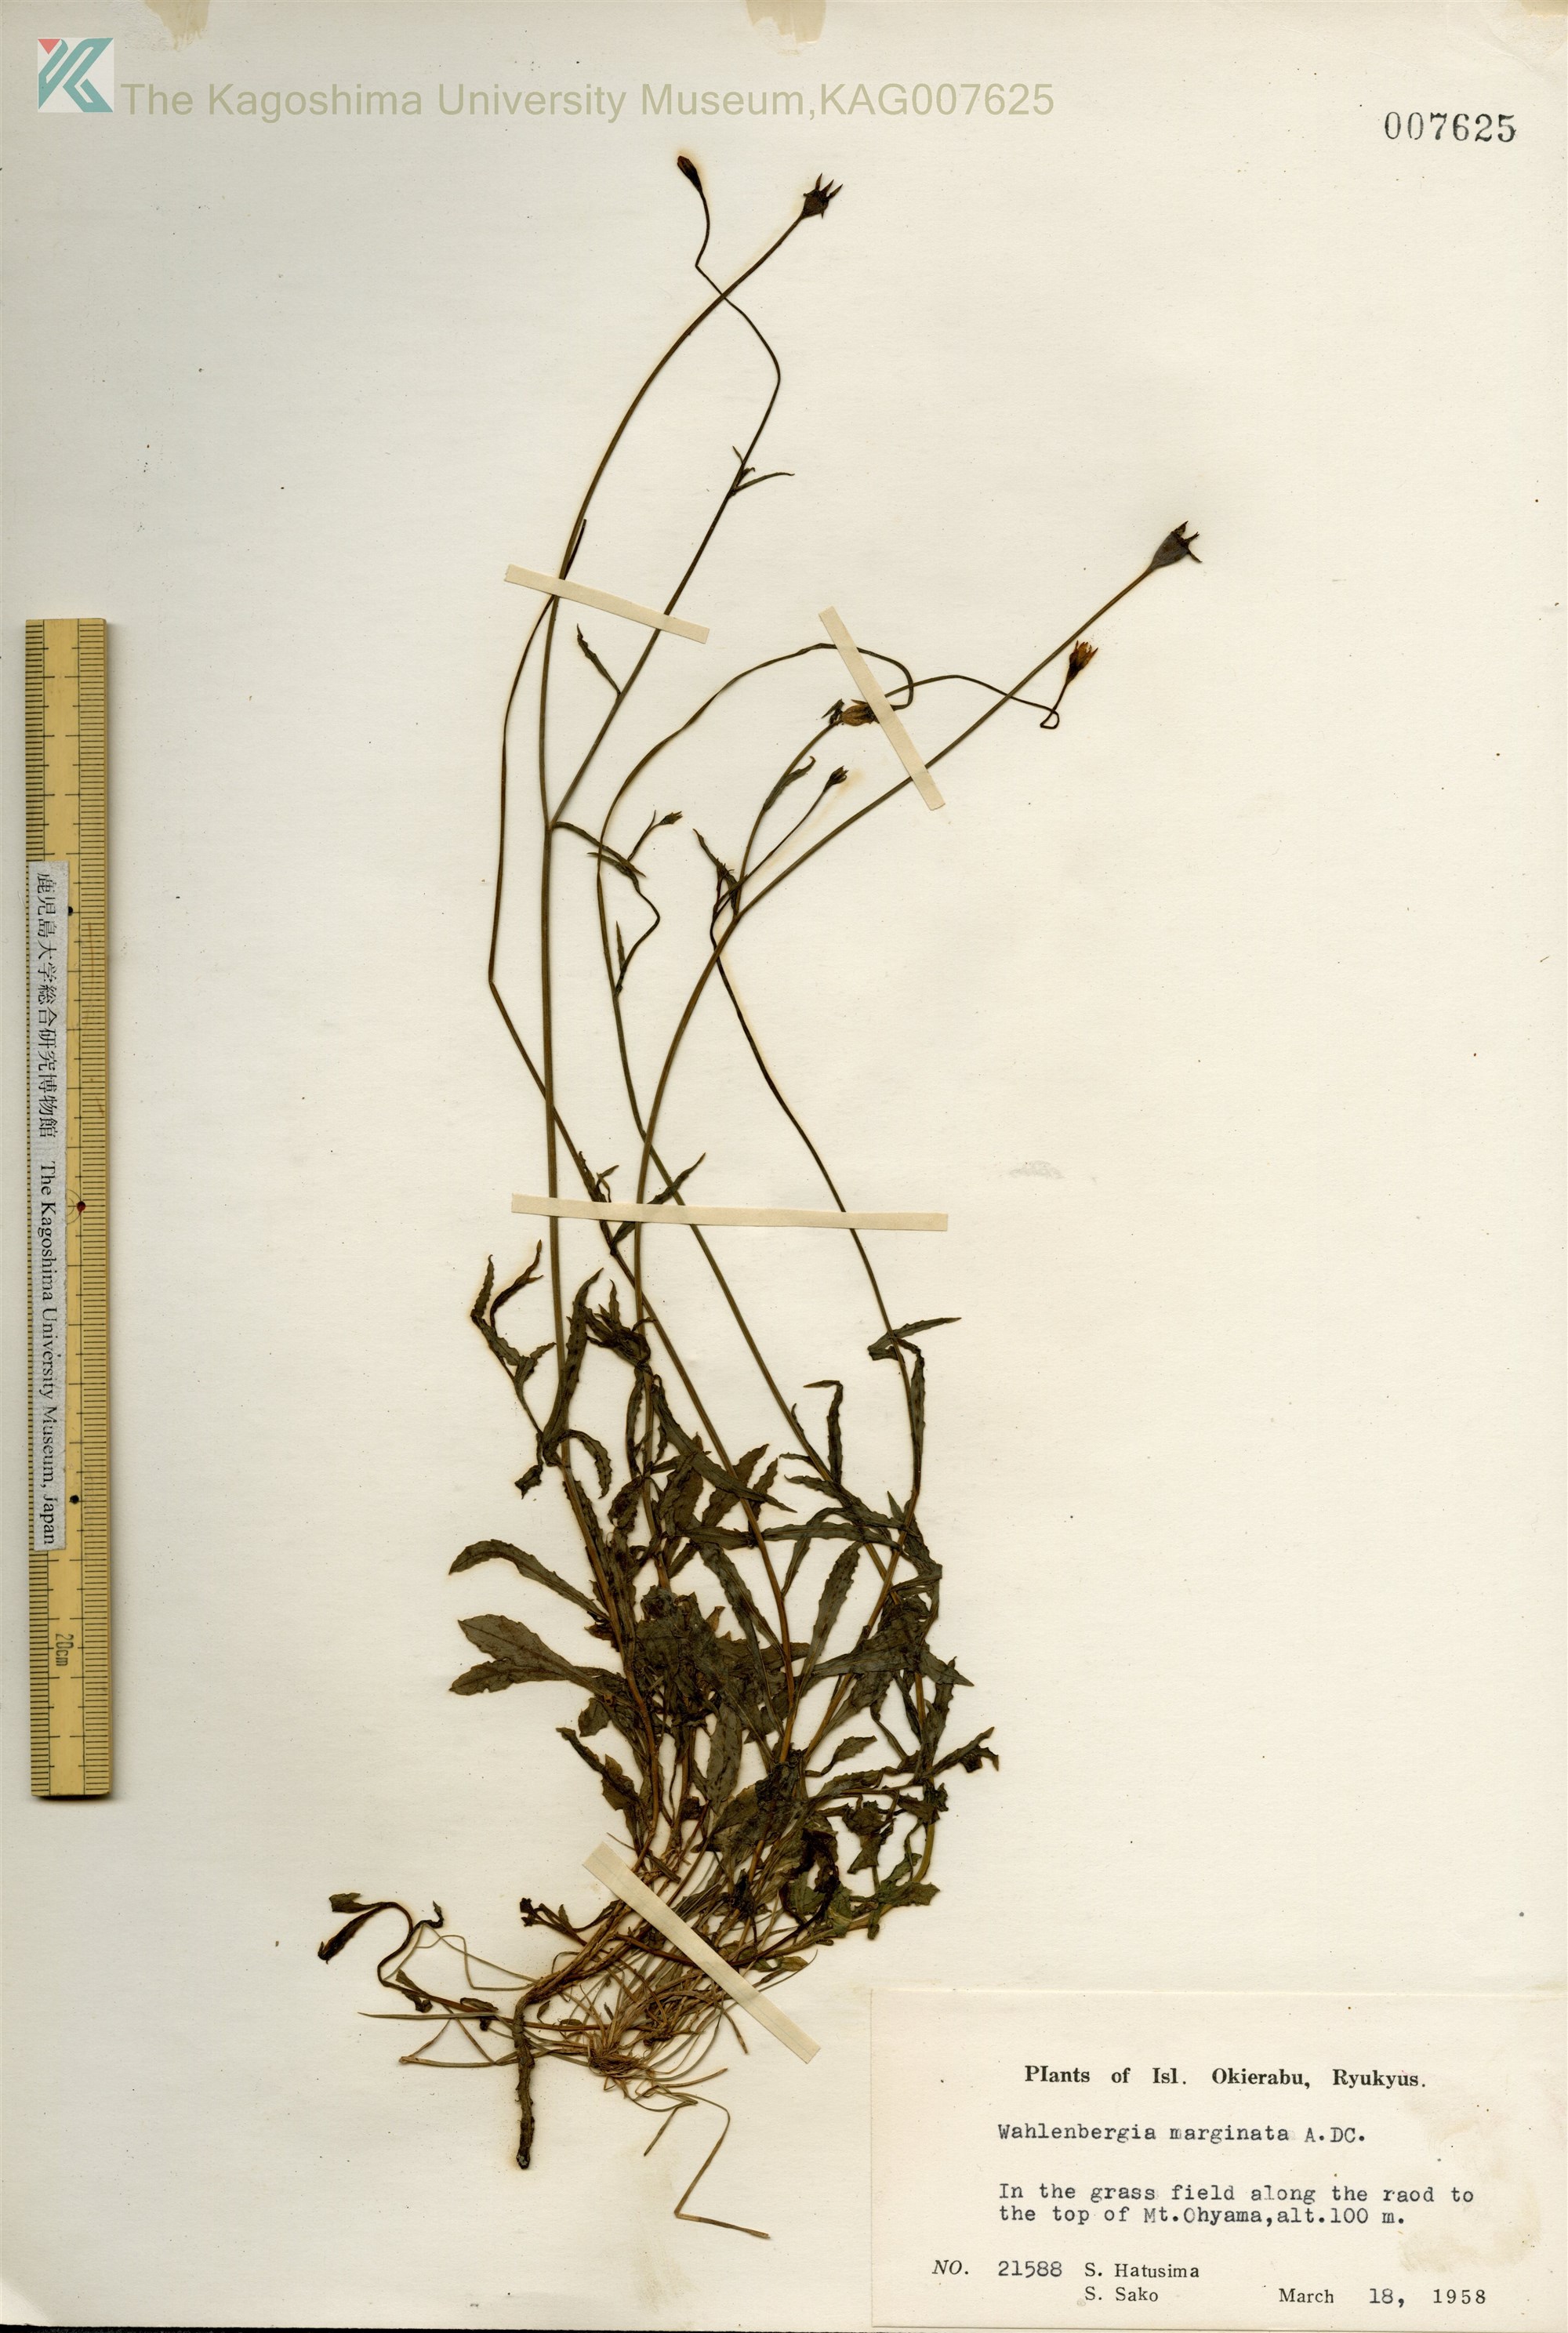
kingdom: Plantae
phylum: Tracheophyta
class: Magnoliopsida
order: Asterales
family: Campanulaceae
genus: Wahlenbergia
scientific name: Wahlenbergia marginata
